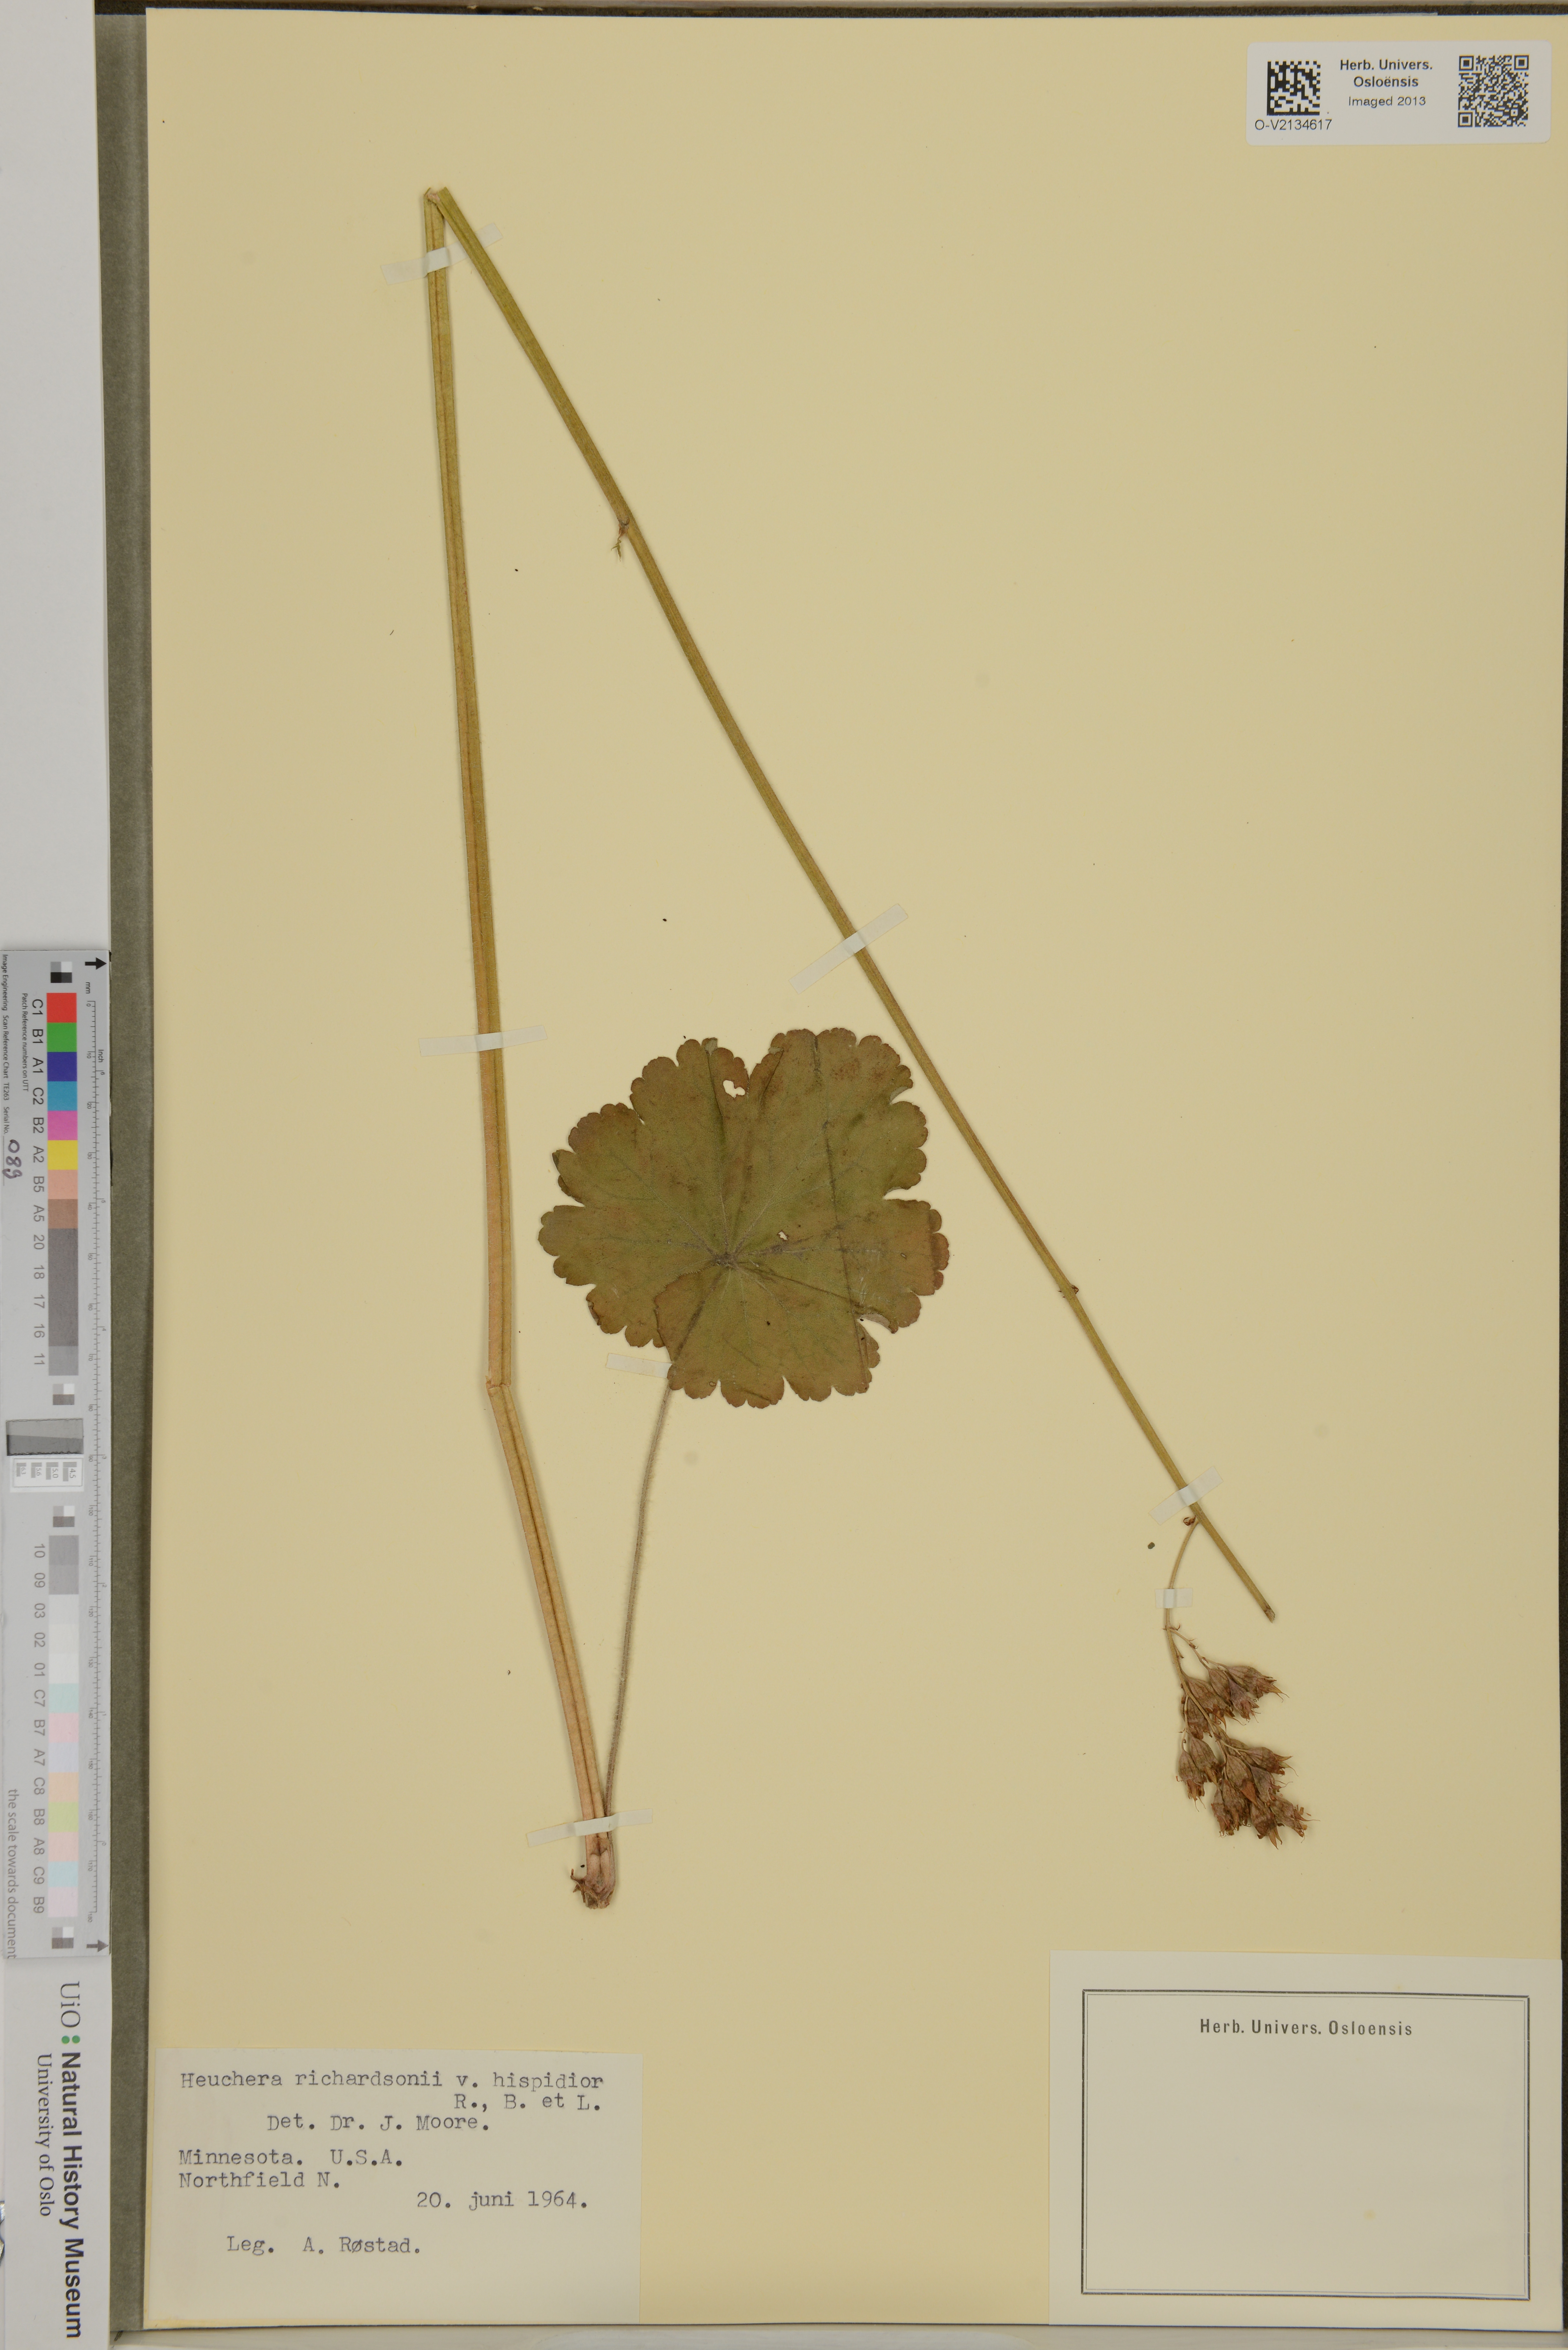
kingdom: Plantae
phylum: Tracheophyta
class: Magnoliopsida
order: Saxifragales
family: Saxifragaceae
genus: Heuchera
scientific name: Heuchera richardsonii
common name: Richardson's alumroot
